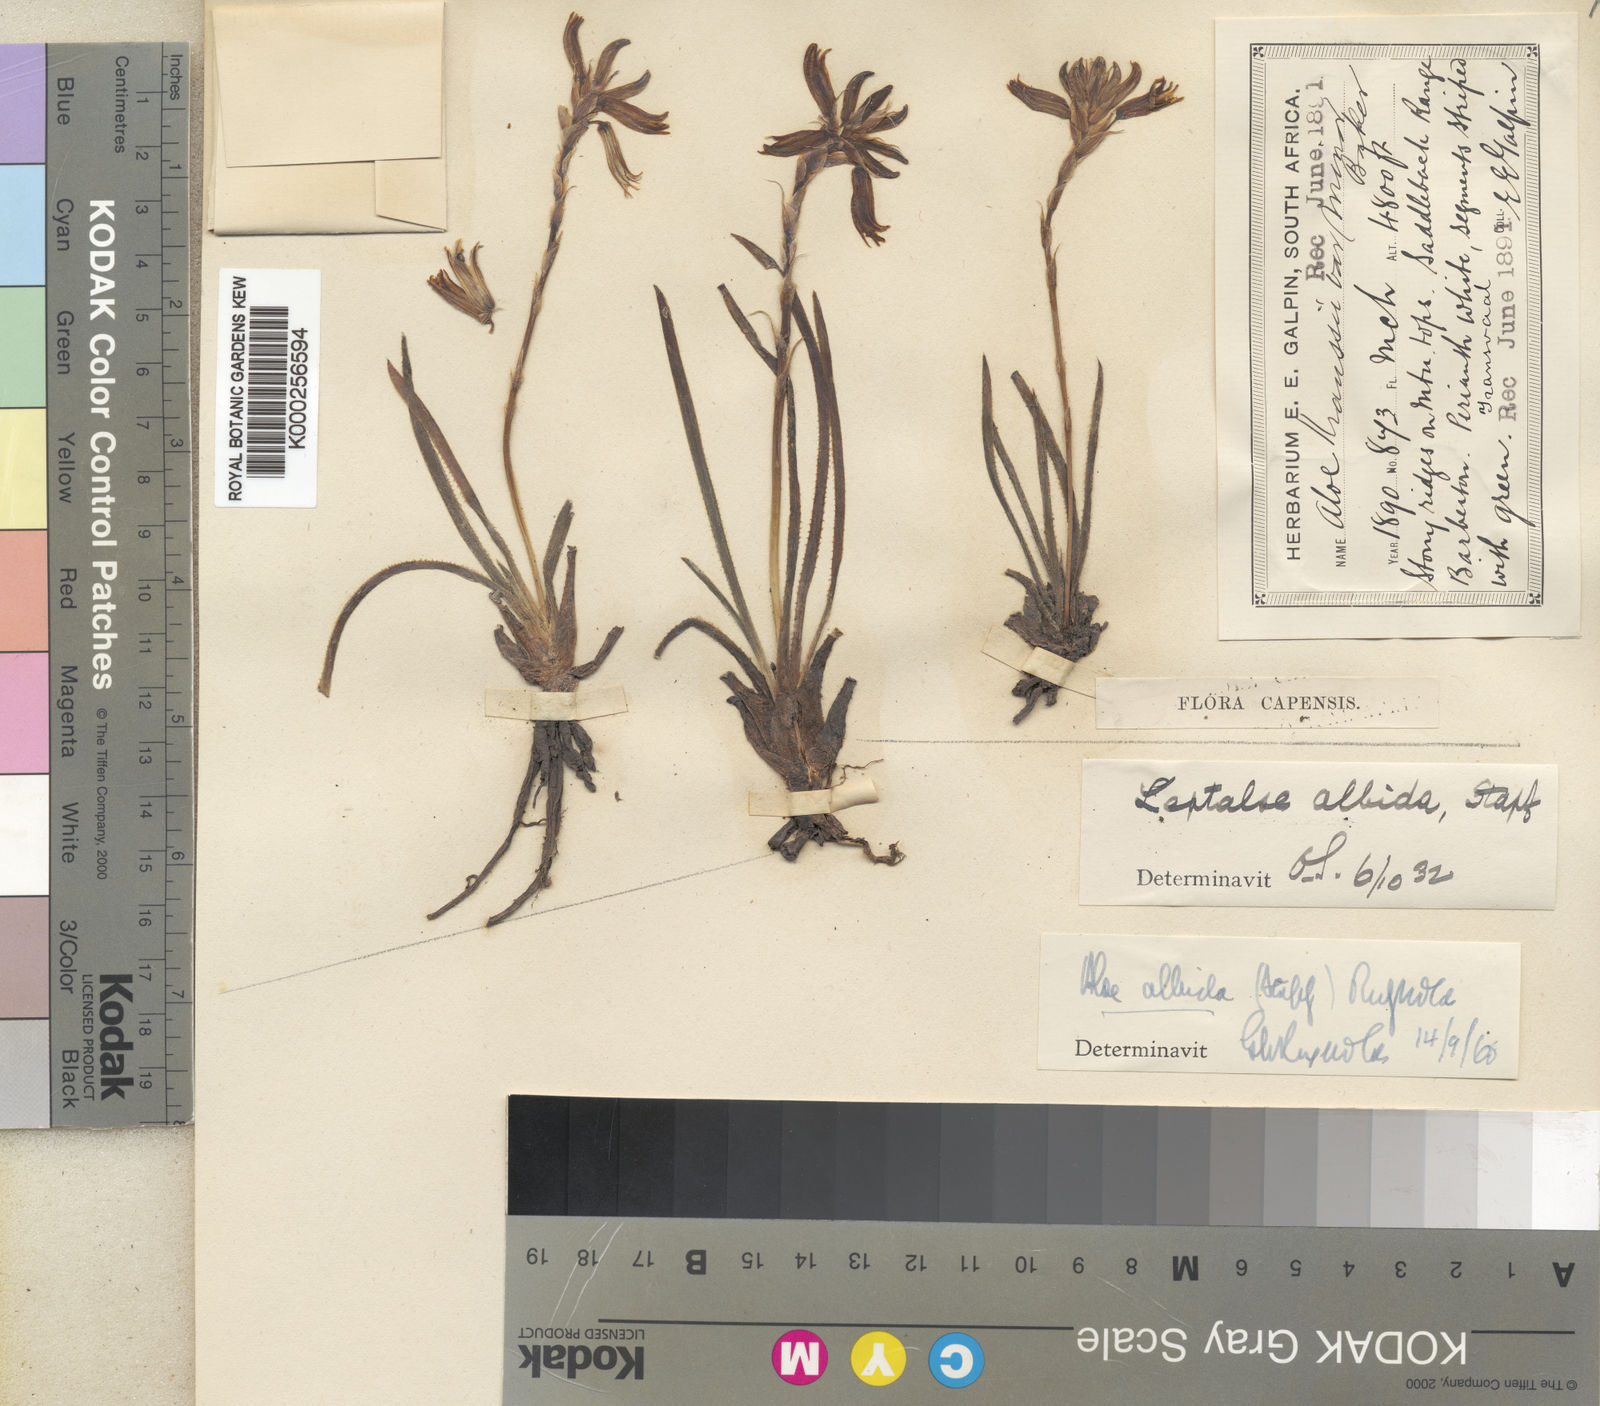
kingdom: Plantae
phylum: Tracheophyta
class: Liliopsida
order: Asparagales
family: Asphodelaceae
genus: Aloe
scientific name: Aloe albida
